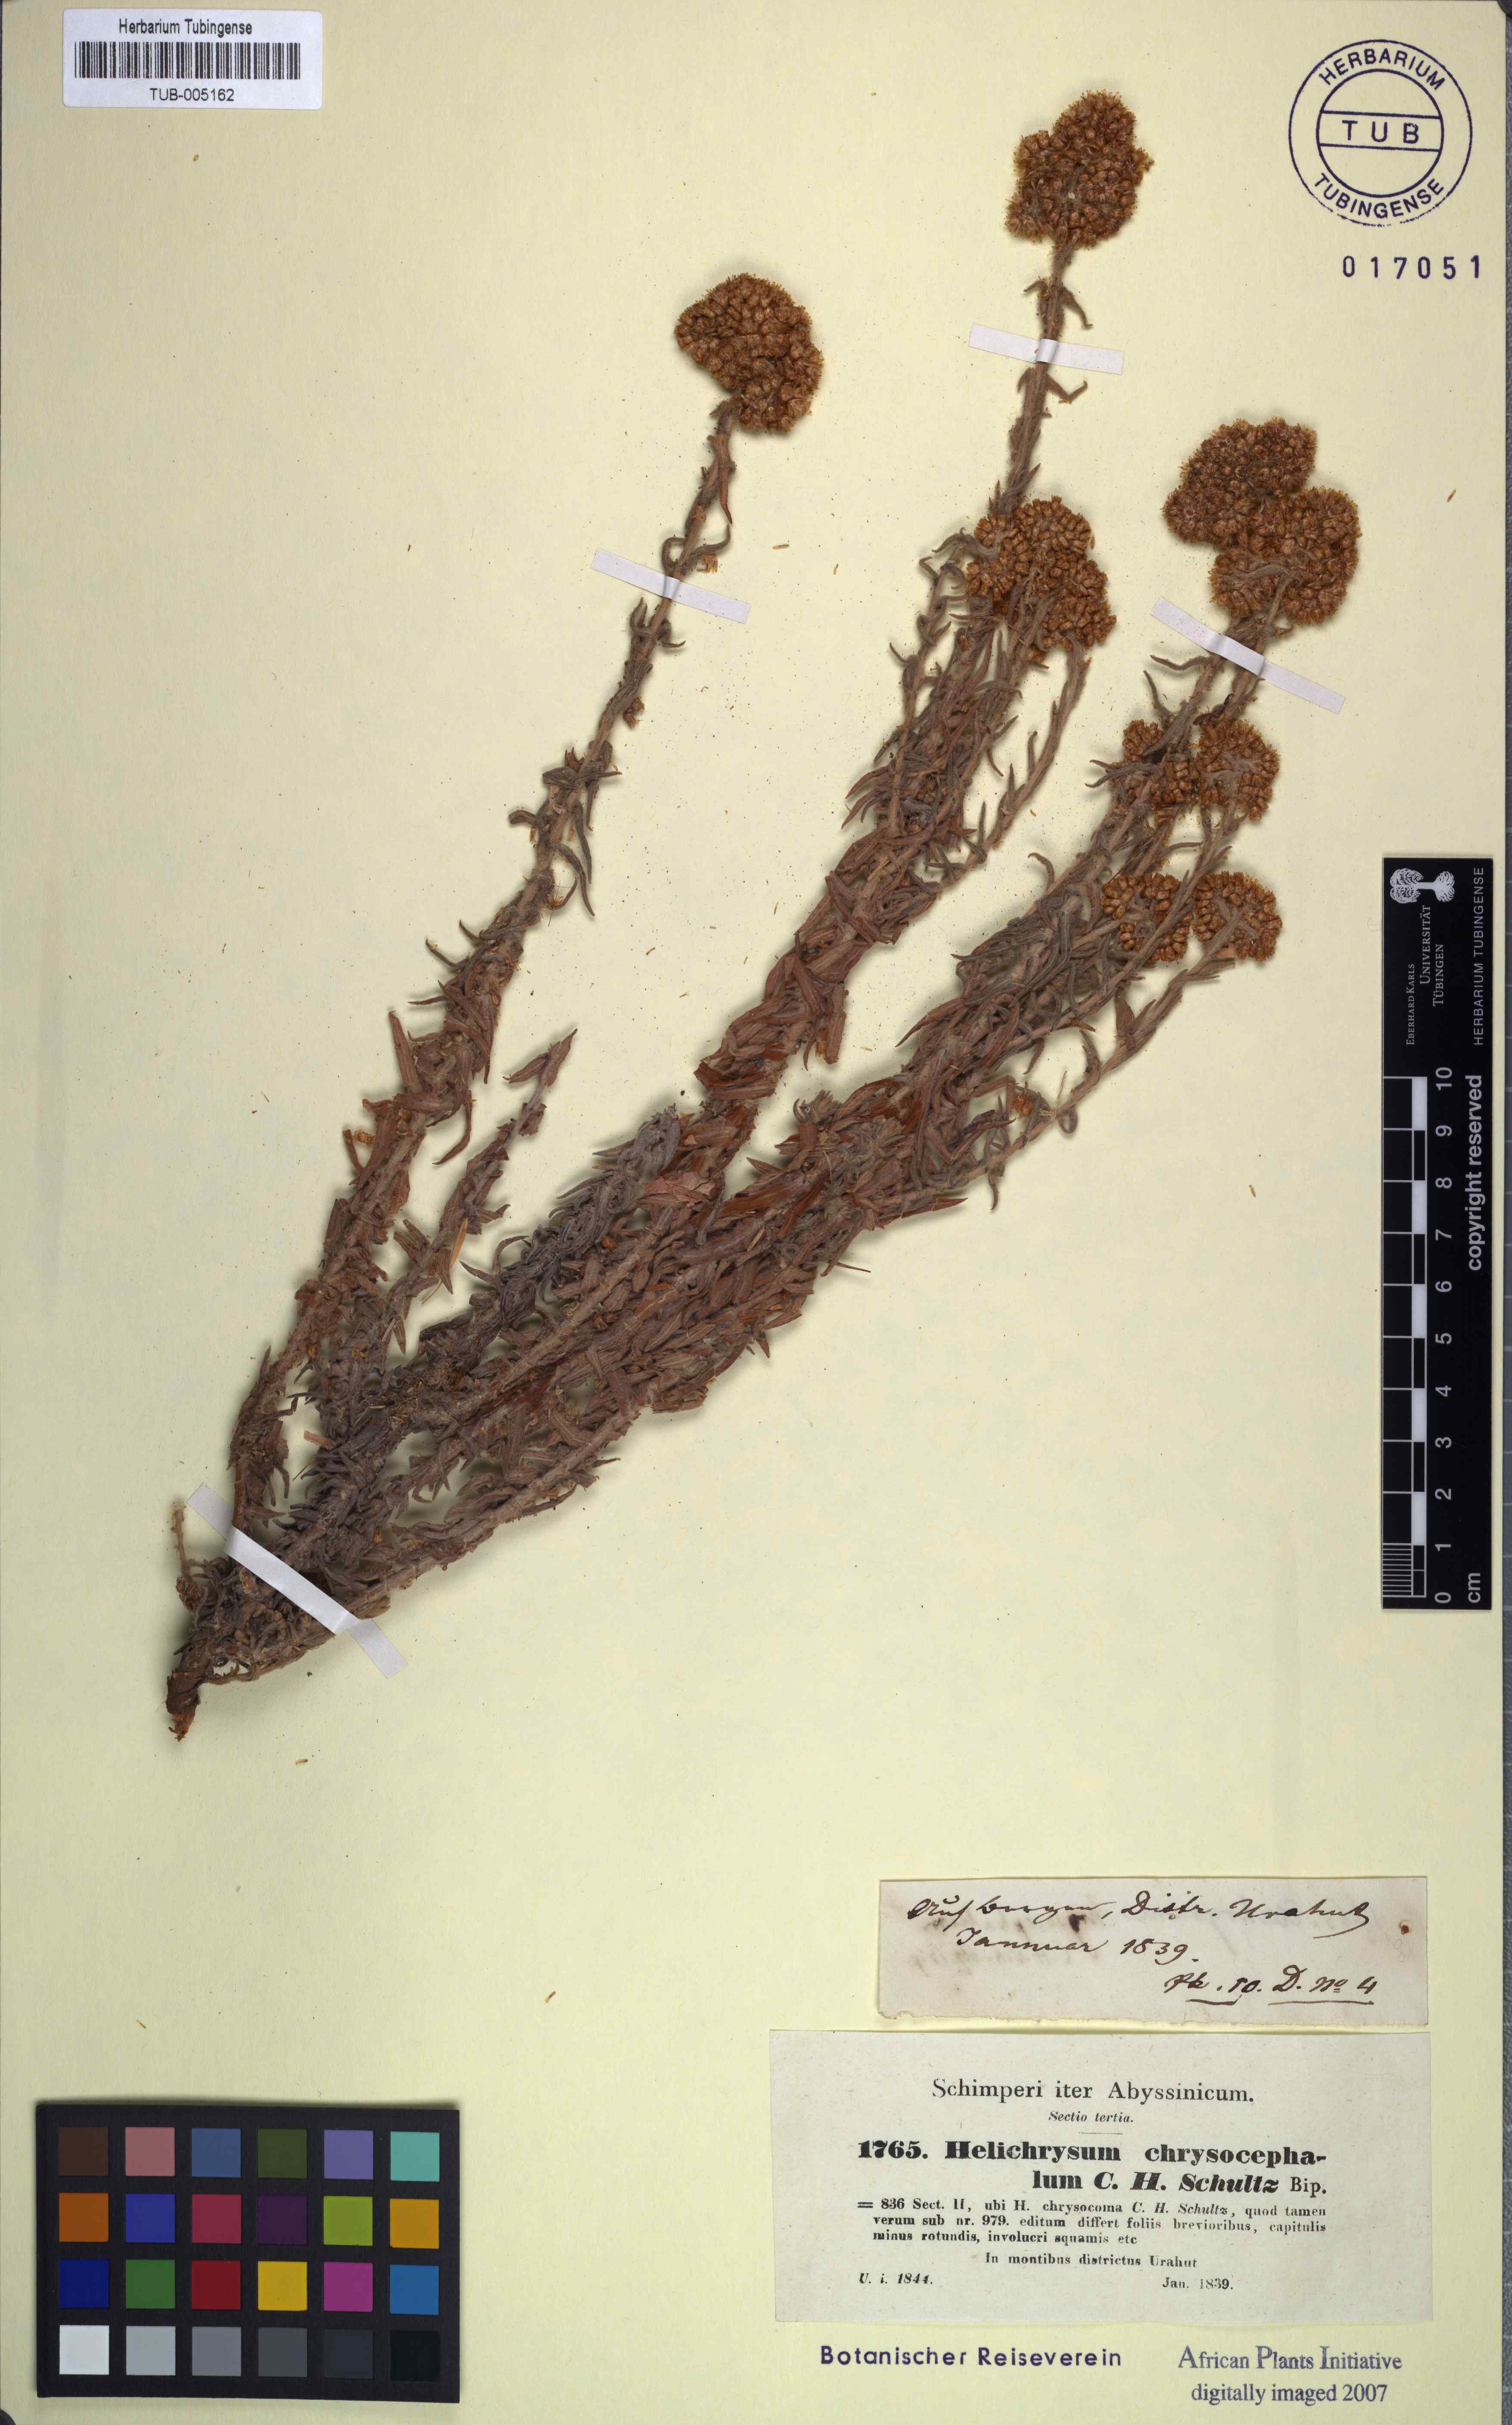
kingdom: Plantae
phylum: Tracheophyta
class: Magnoliopsida
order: Asterales
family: Asteraceae
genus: Helichrysum
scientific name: Helichrysum cymosum
